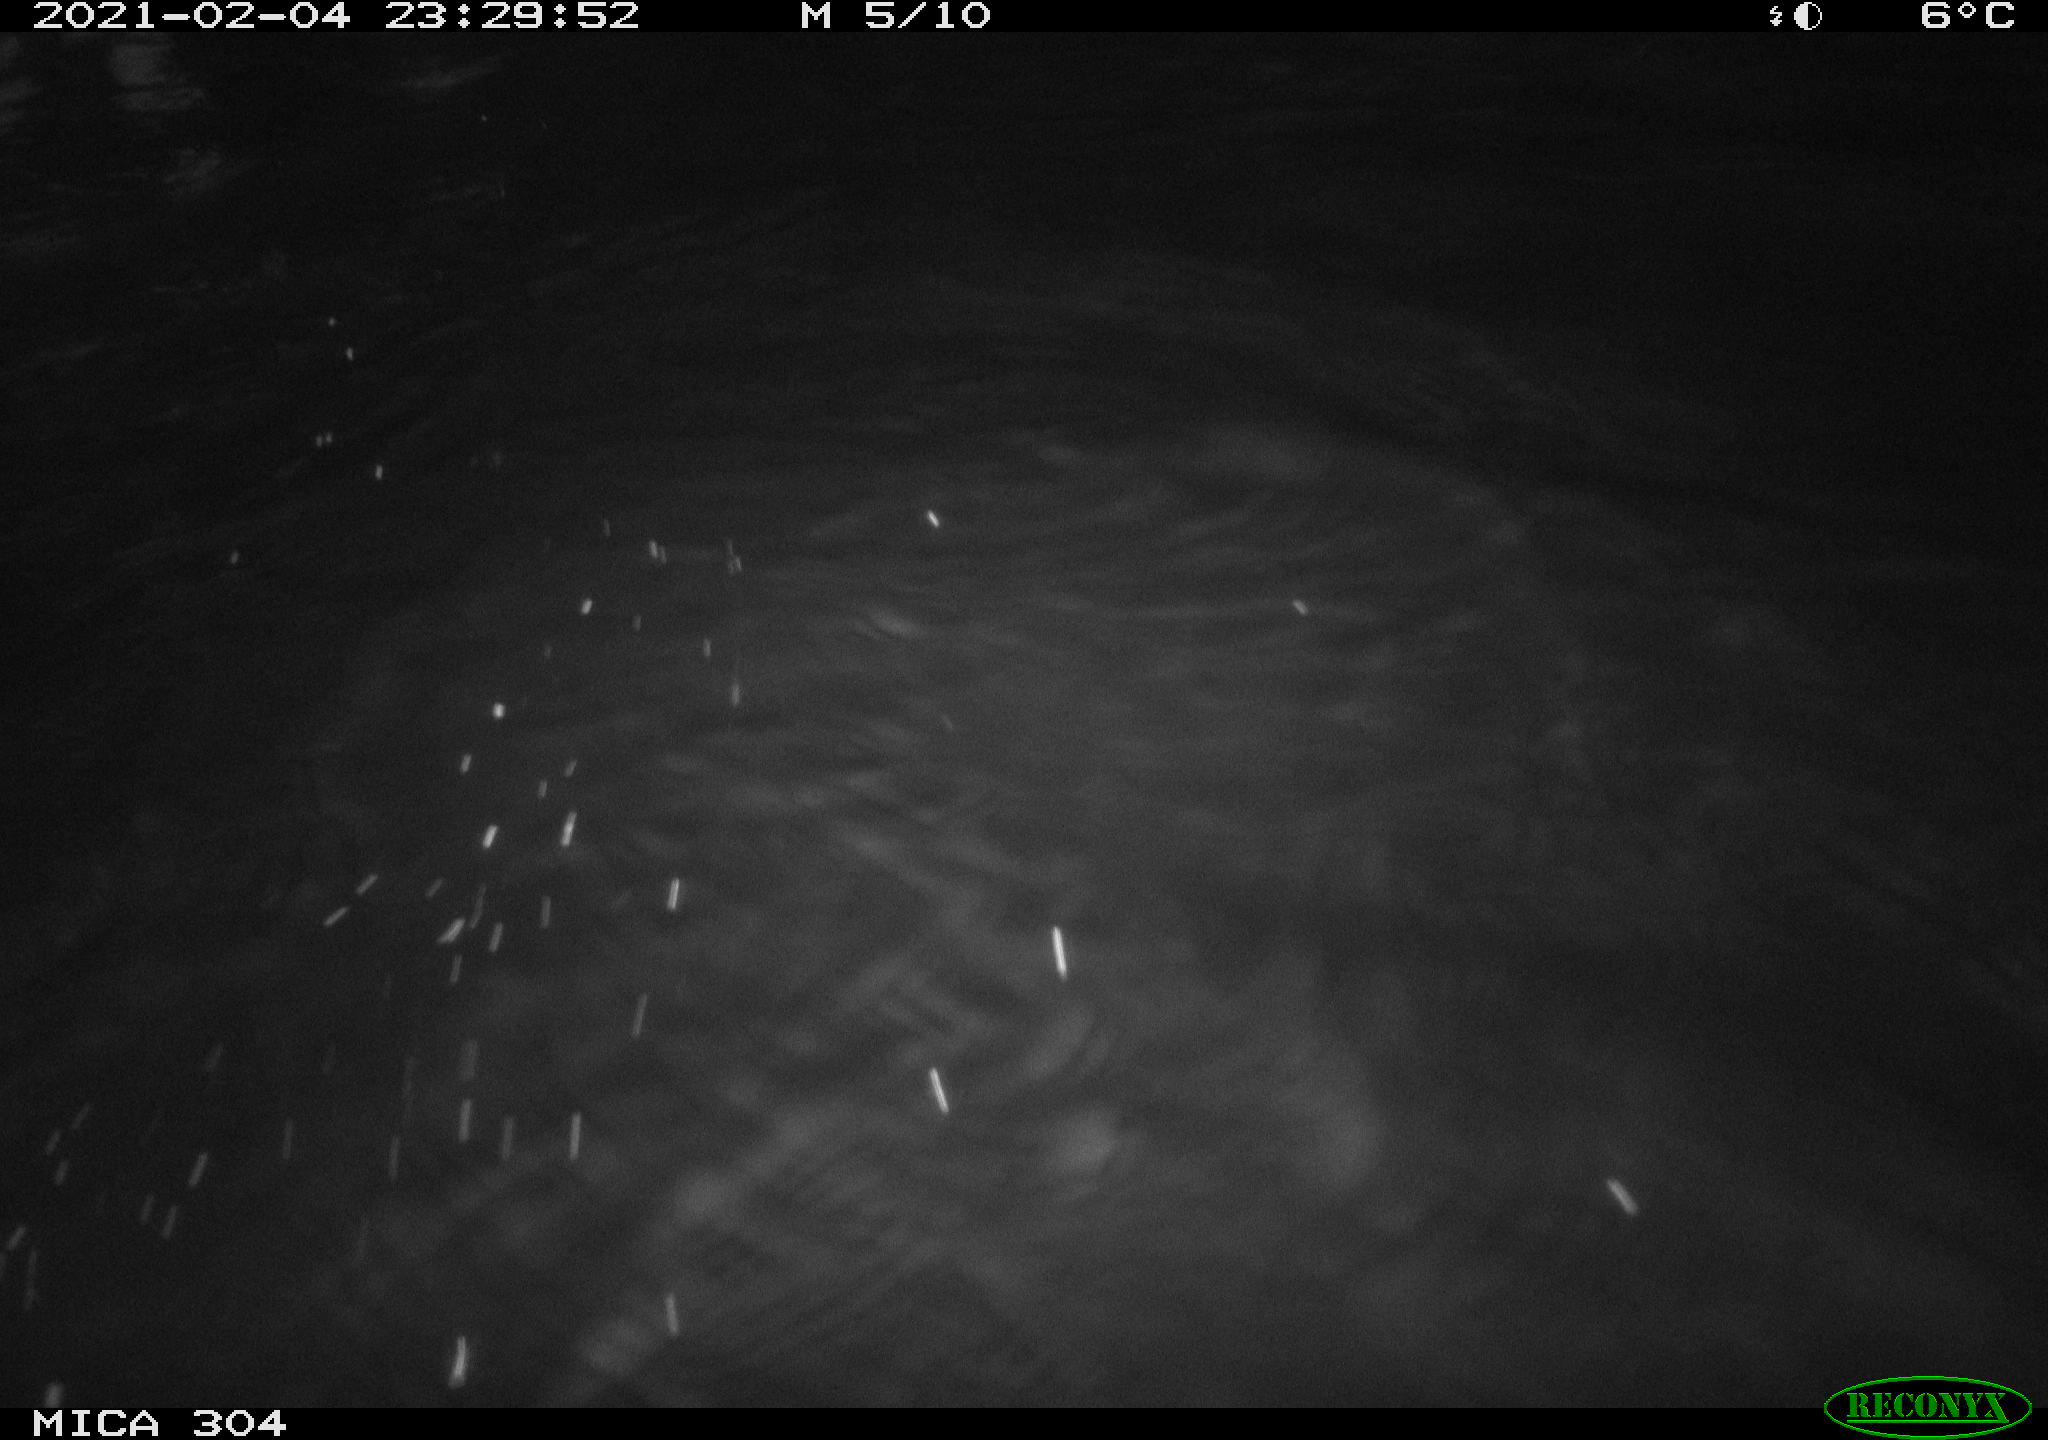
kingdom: Animalia
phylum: Chordata
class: Mammalia
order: Rodentia
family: Cricetidae
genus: Ondatra
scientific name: Ondatra zibethicus
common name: Muskrat
